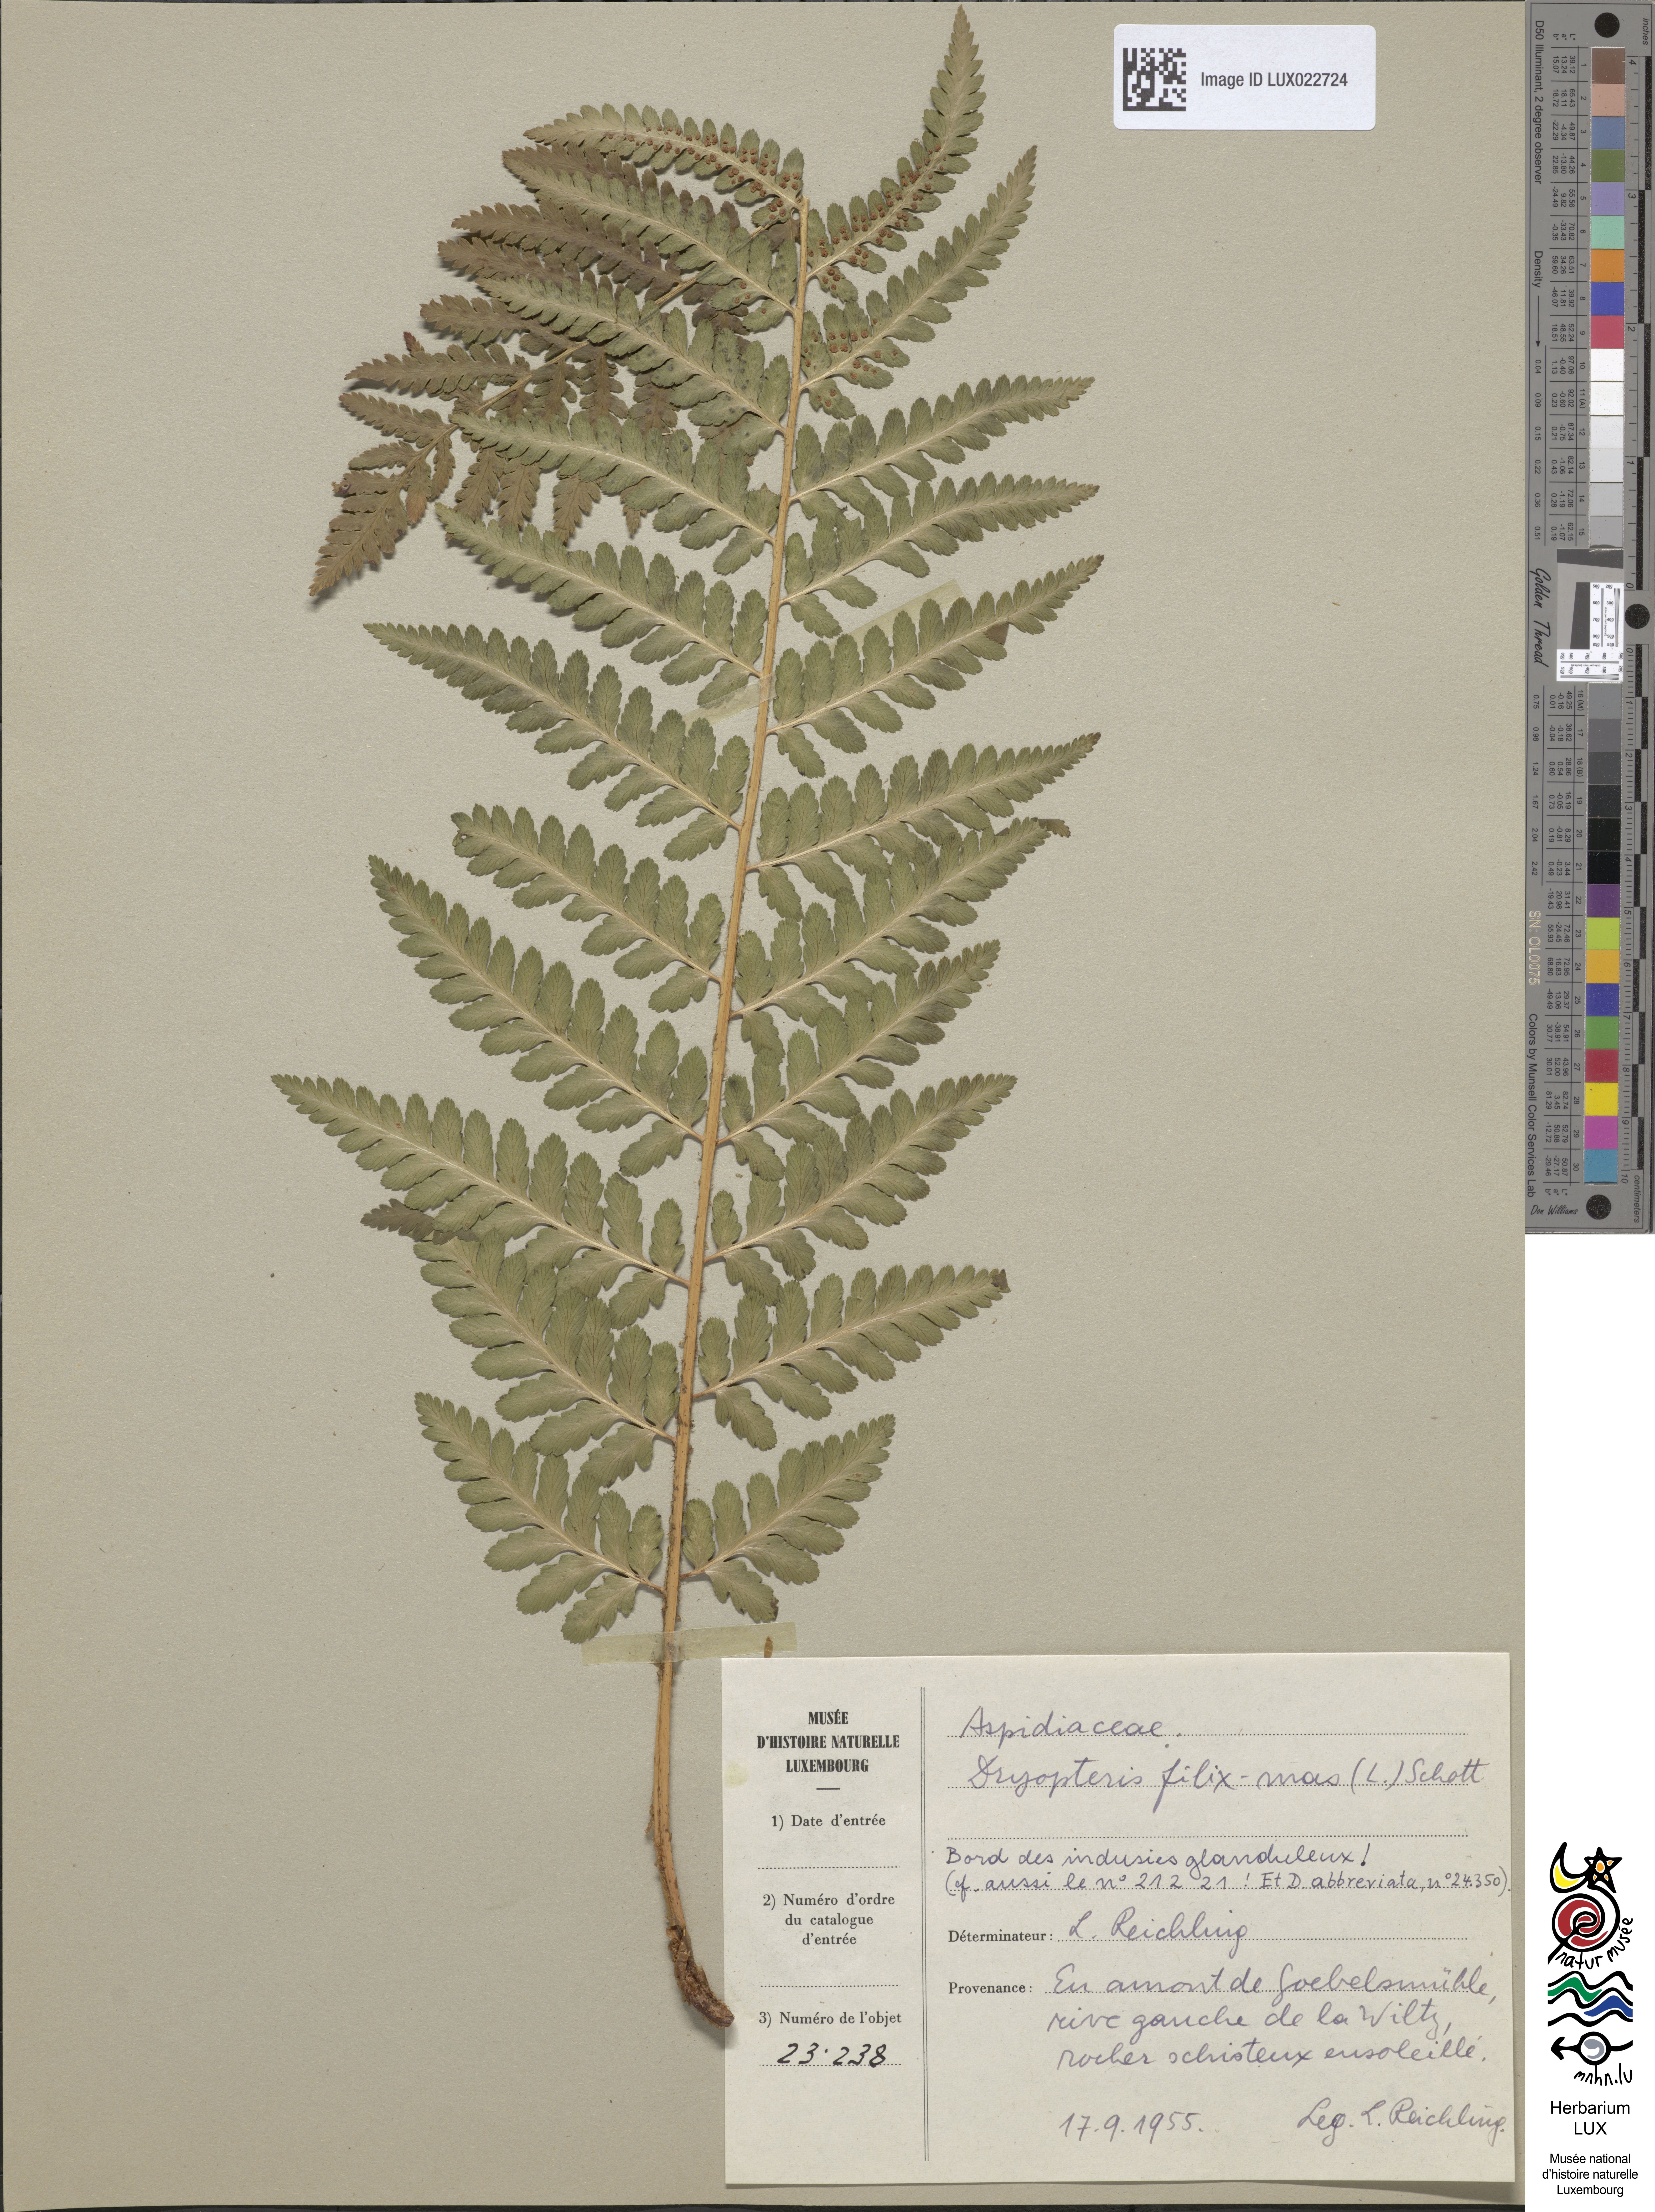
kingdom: Plantae
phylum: Tracheophyta
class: Polypodiopsida
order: Polypodiales
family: Dryopteridaceae
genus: Dryopteris
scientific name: Dryopteris filix-mas
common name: Male fern
